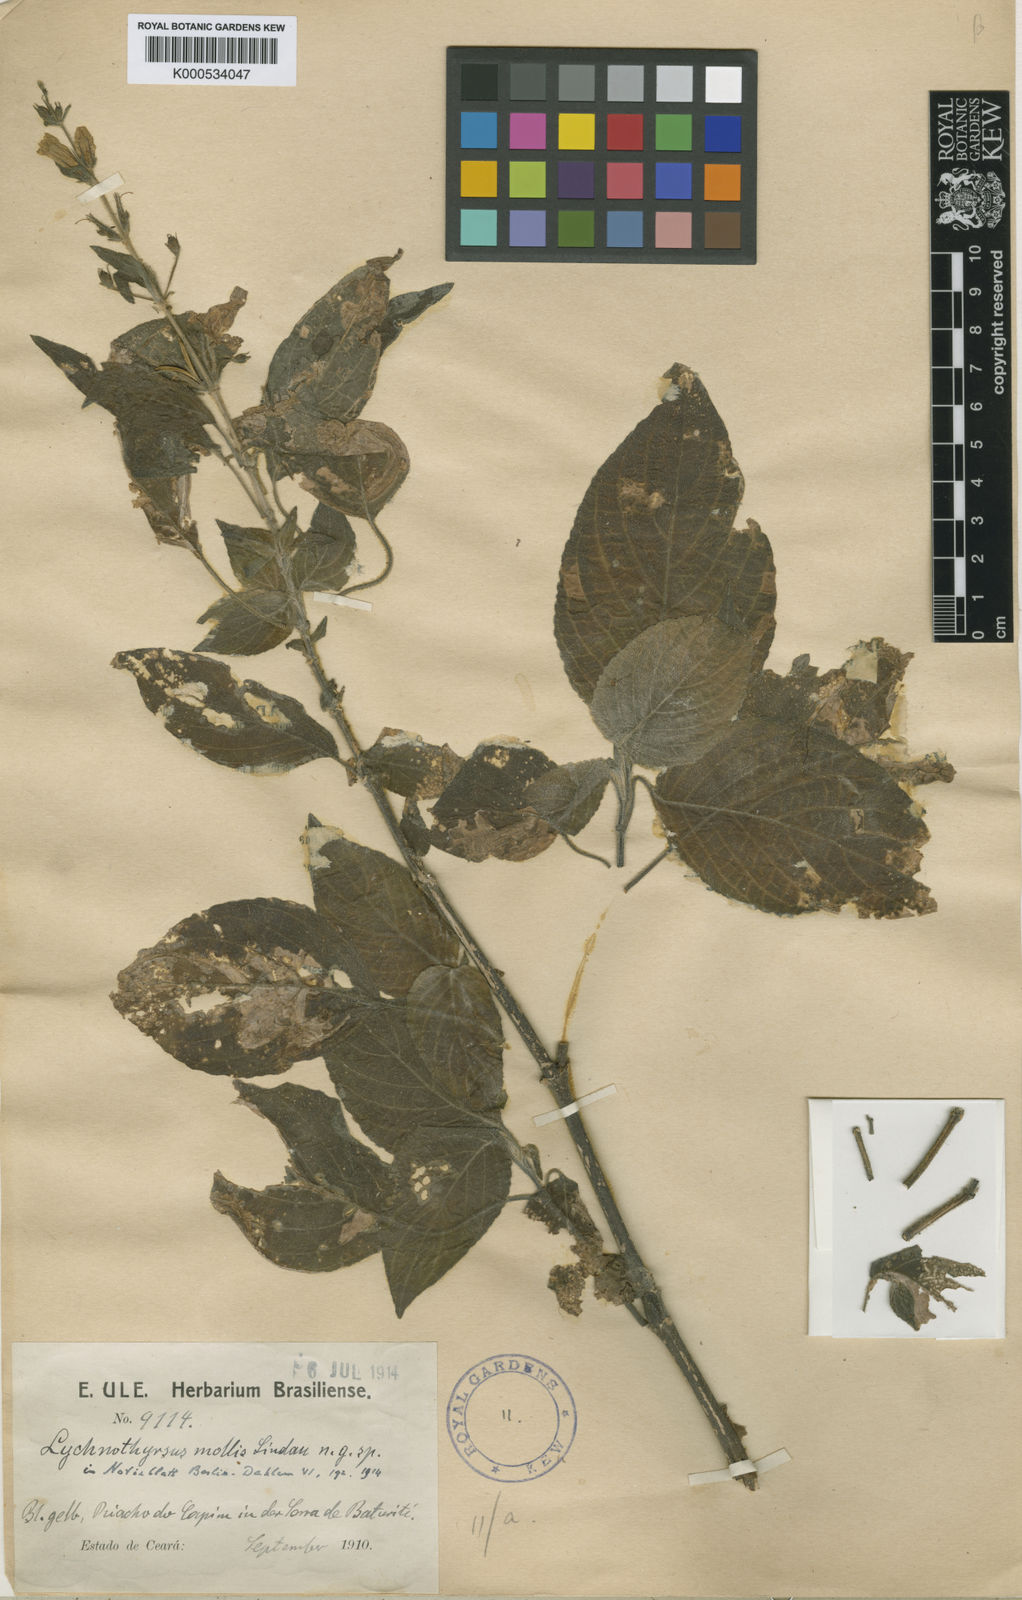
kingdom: Plantae
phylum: Tracheophyta
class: Magnoliopsida
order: Lamiales
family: Acanthaceae
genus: Ruellia
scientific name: Ruellia ochroleuca
